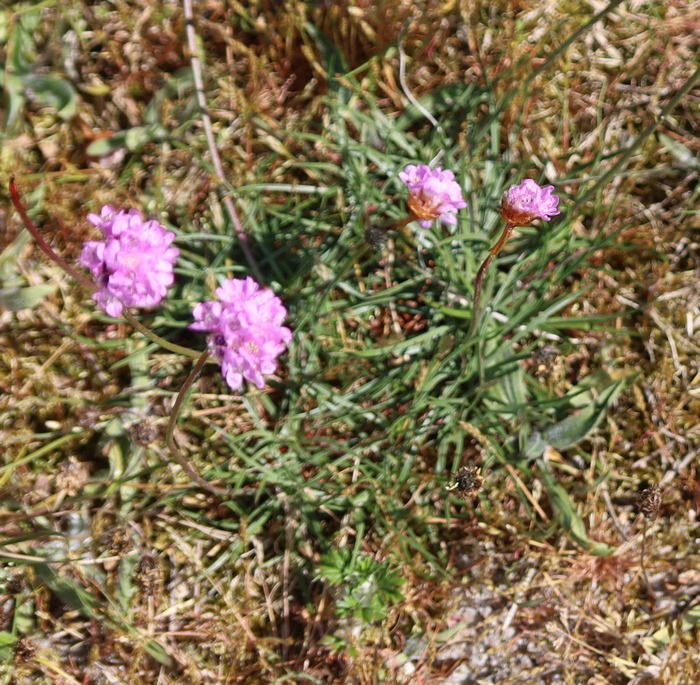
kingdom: Plantae
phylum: Tracheophyta
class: Magnoliopsida
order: Caryophyllales
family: Plumbaginaceae
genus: Armeria
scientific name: Armeria maritima
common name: Engelskgræs
